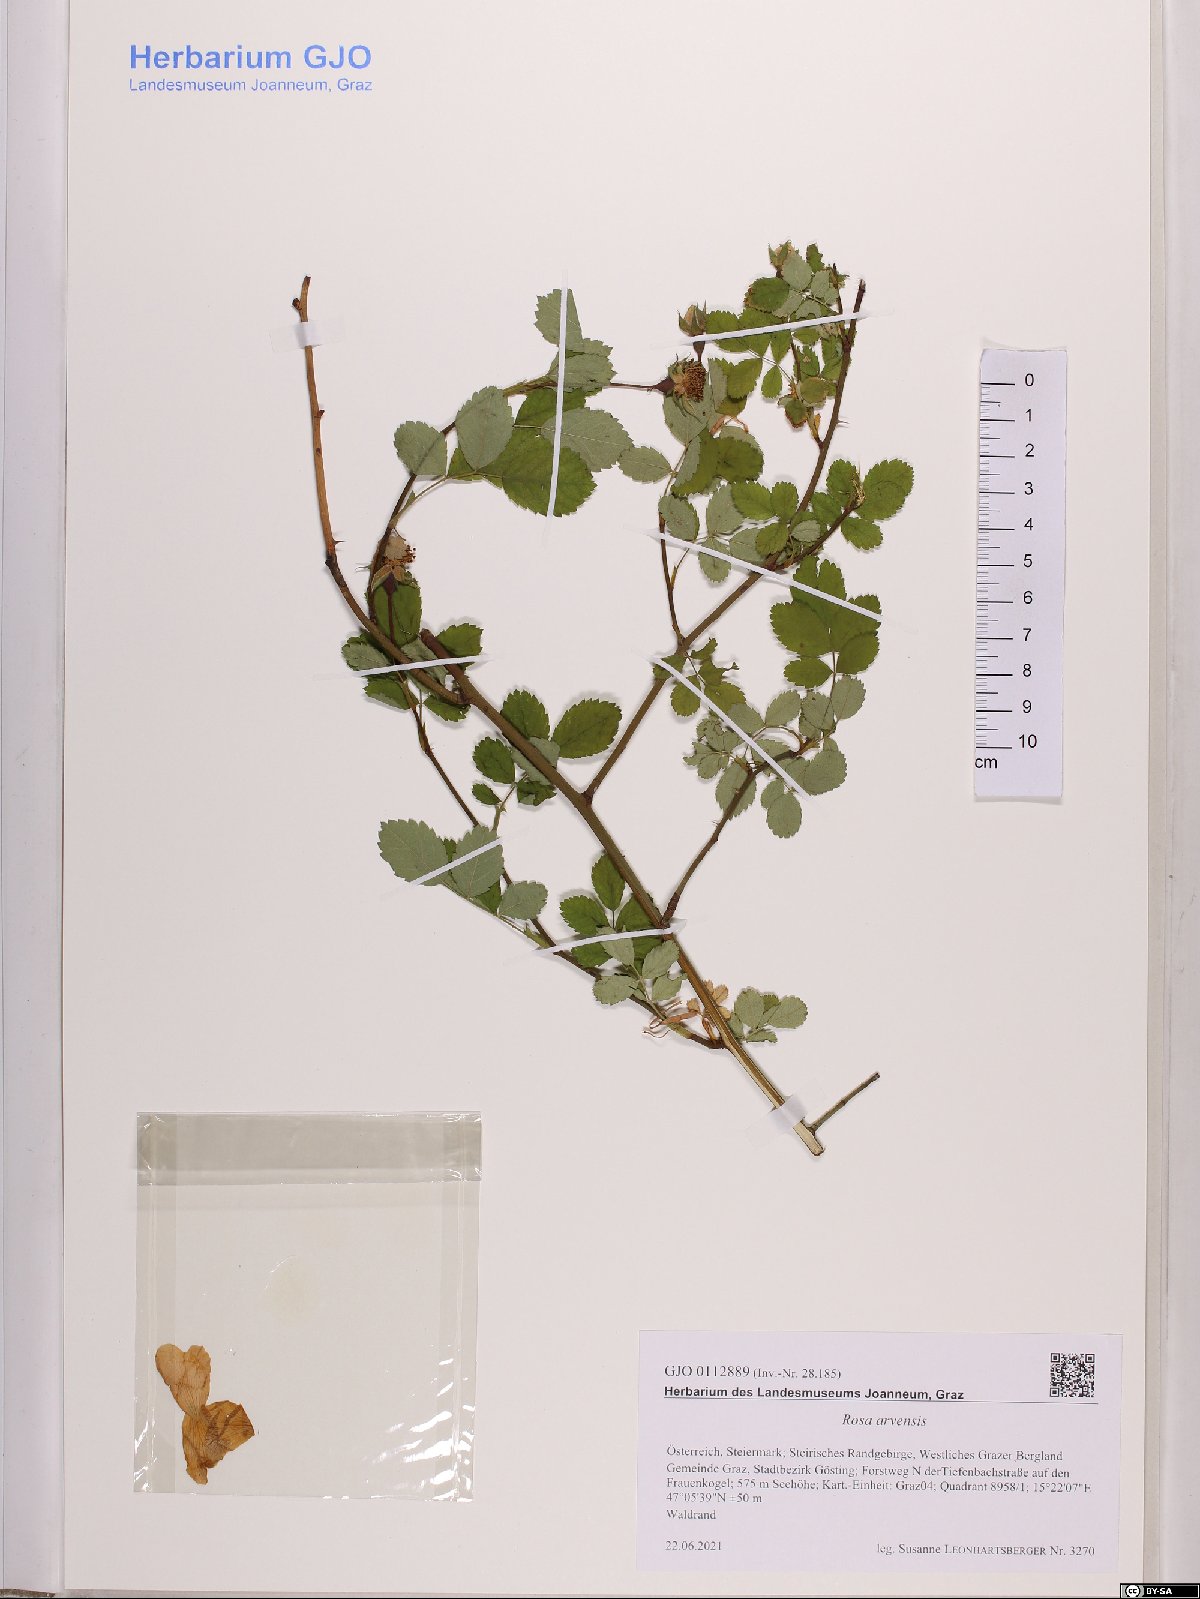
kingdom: Plantae
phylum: Tracheophyta
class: Magnoliopsida
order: Rosales
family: Rosaceae
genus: Rosa
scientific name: Rosa arvensis
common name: Field rose
